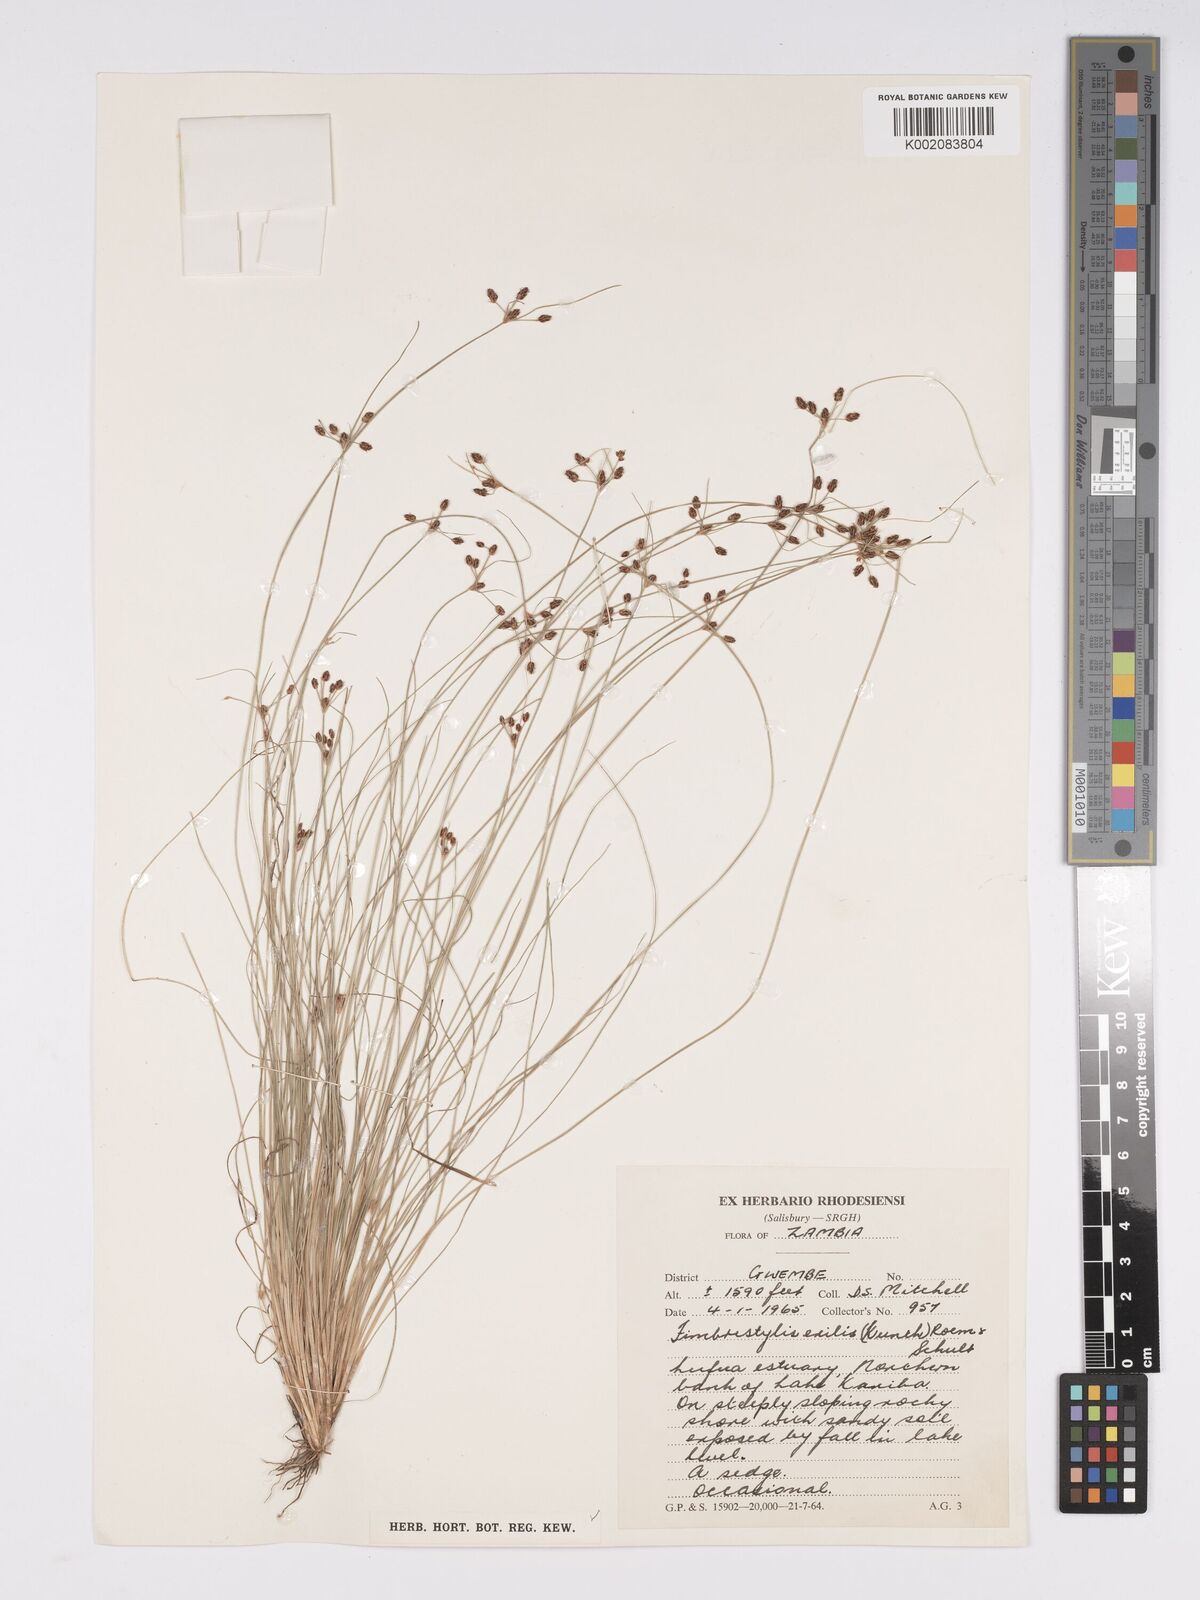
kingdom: Plantae
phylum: Tracheophyta
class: Liliopsida
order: Poales
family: Cyperaceae
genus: Bulbostylis
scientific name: Bulbostylis hispidula
